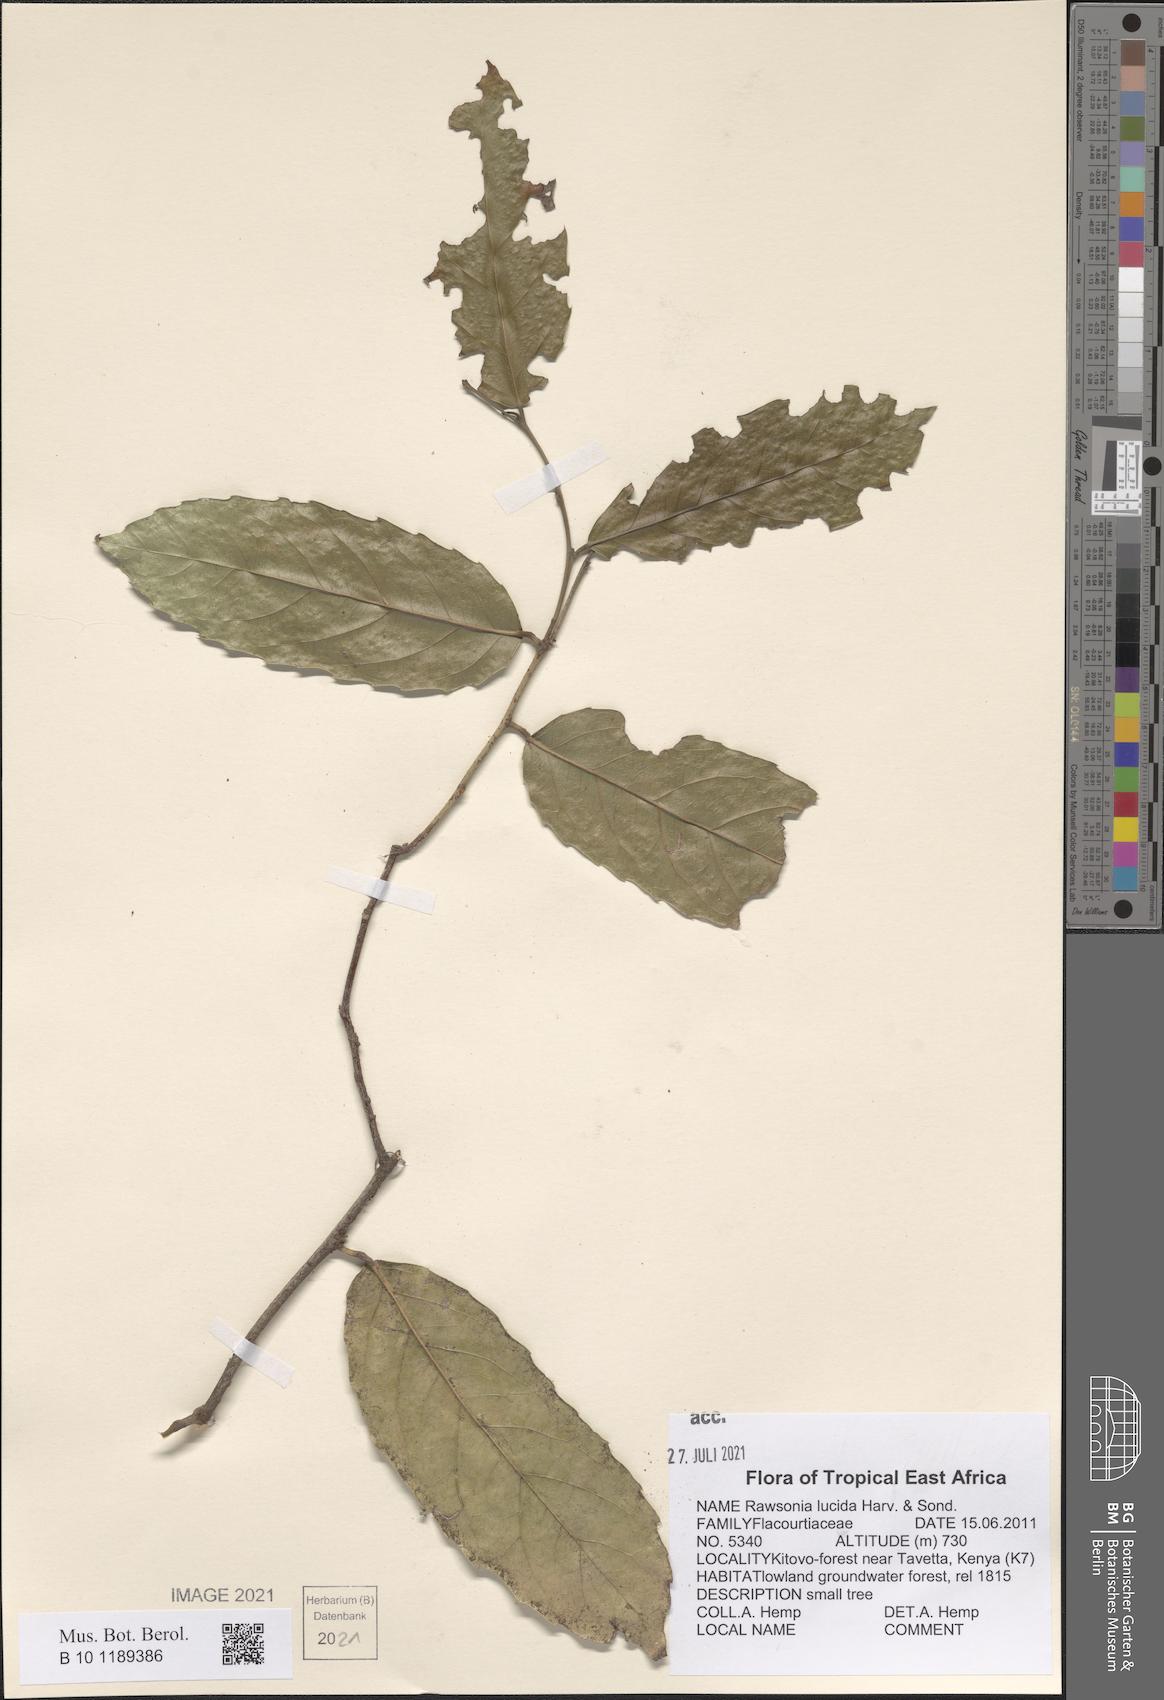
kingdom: Plantae
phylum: Tracheophyta
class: Magnoliopsida
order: Malpighiales
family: Achariaceae
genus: Rawsonia
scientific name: Rawsonia lucida
